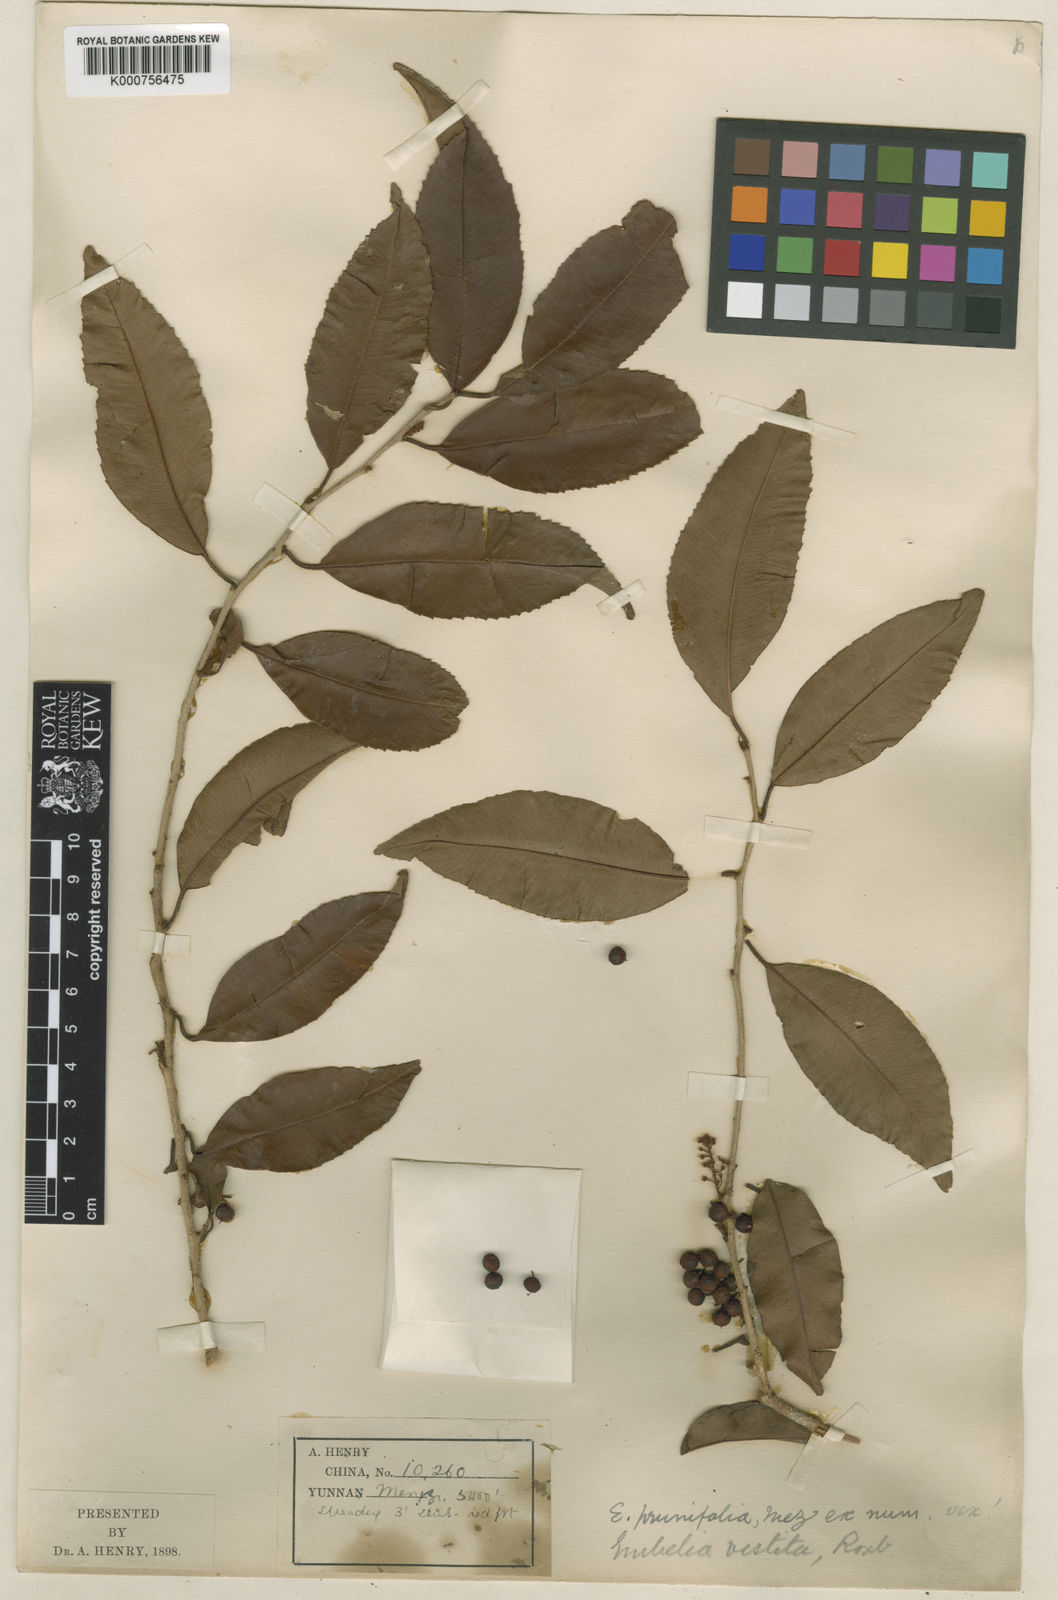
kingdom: Plantae
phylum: Tracheophyta
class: Magnoliopsida
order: Ericales
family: Primulaceae
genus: Embelia
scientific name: Embelia vestita
